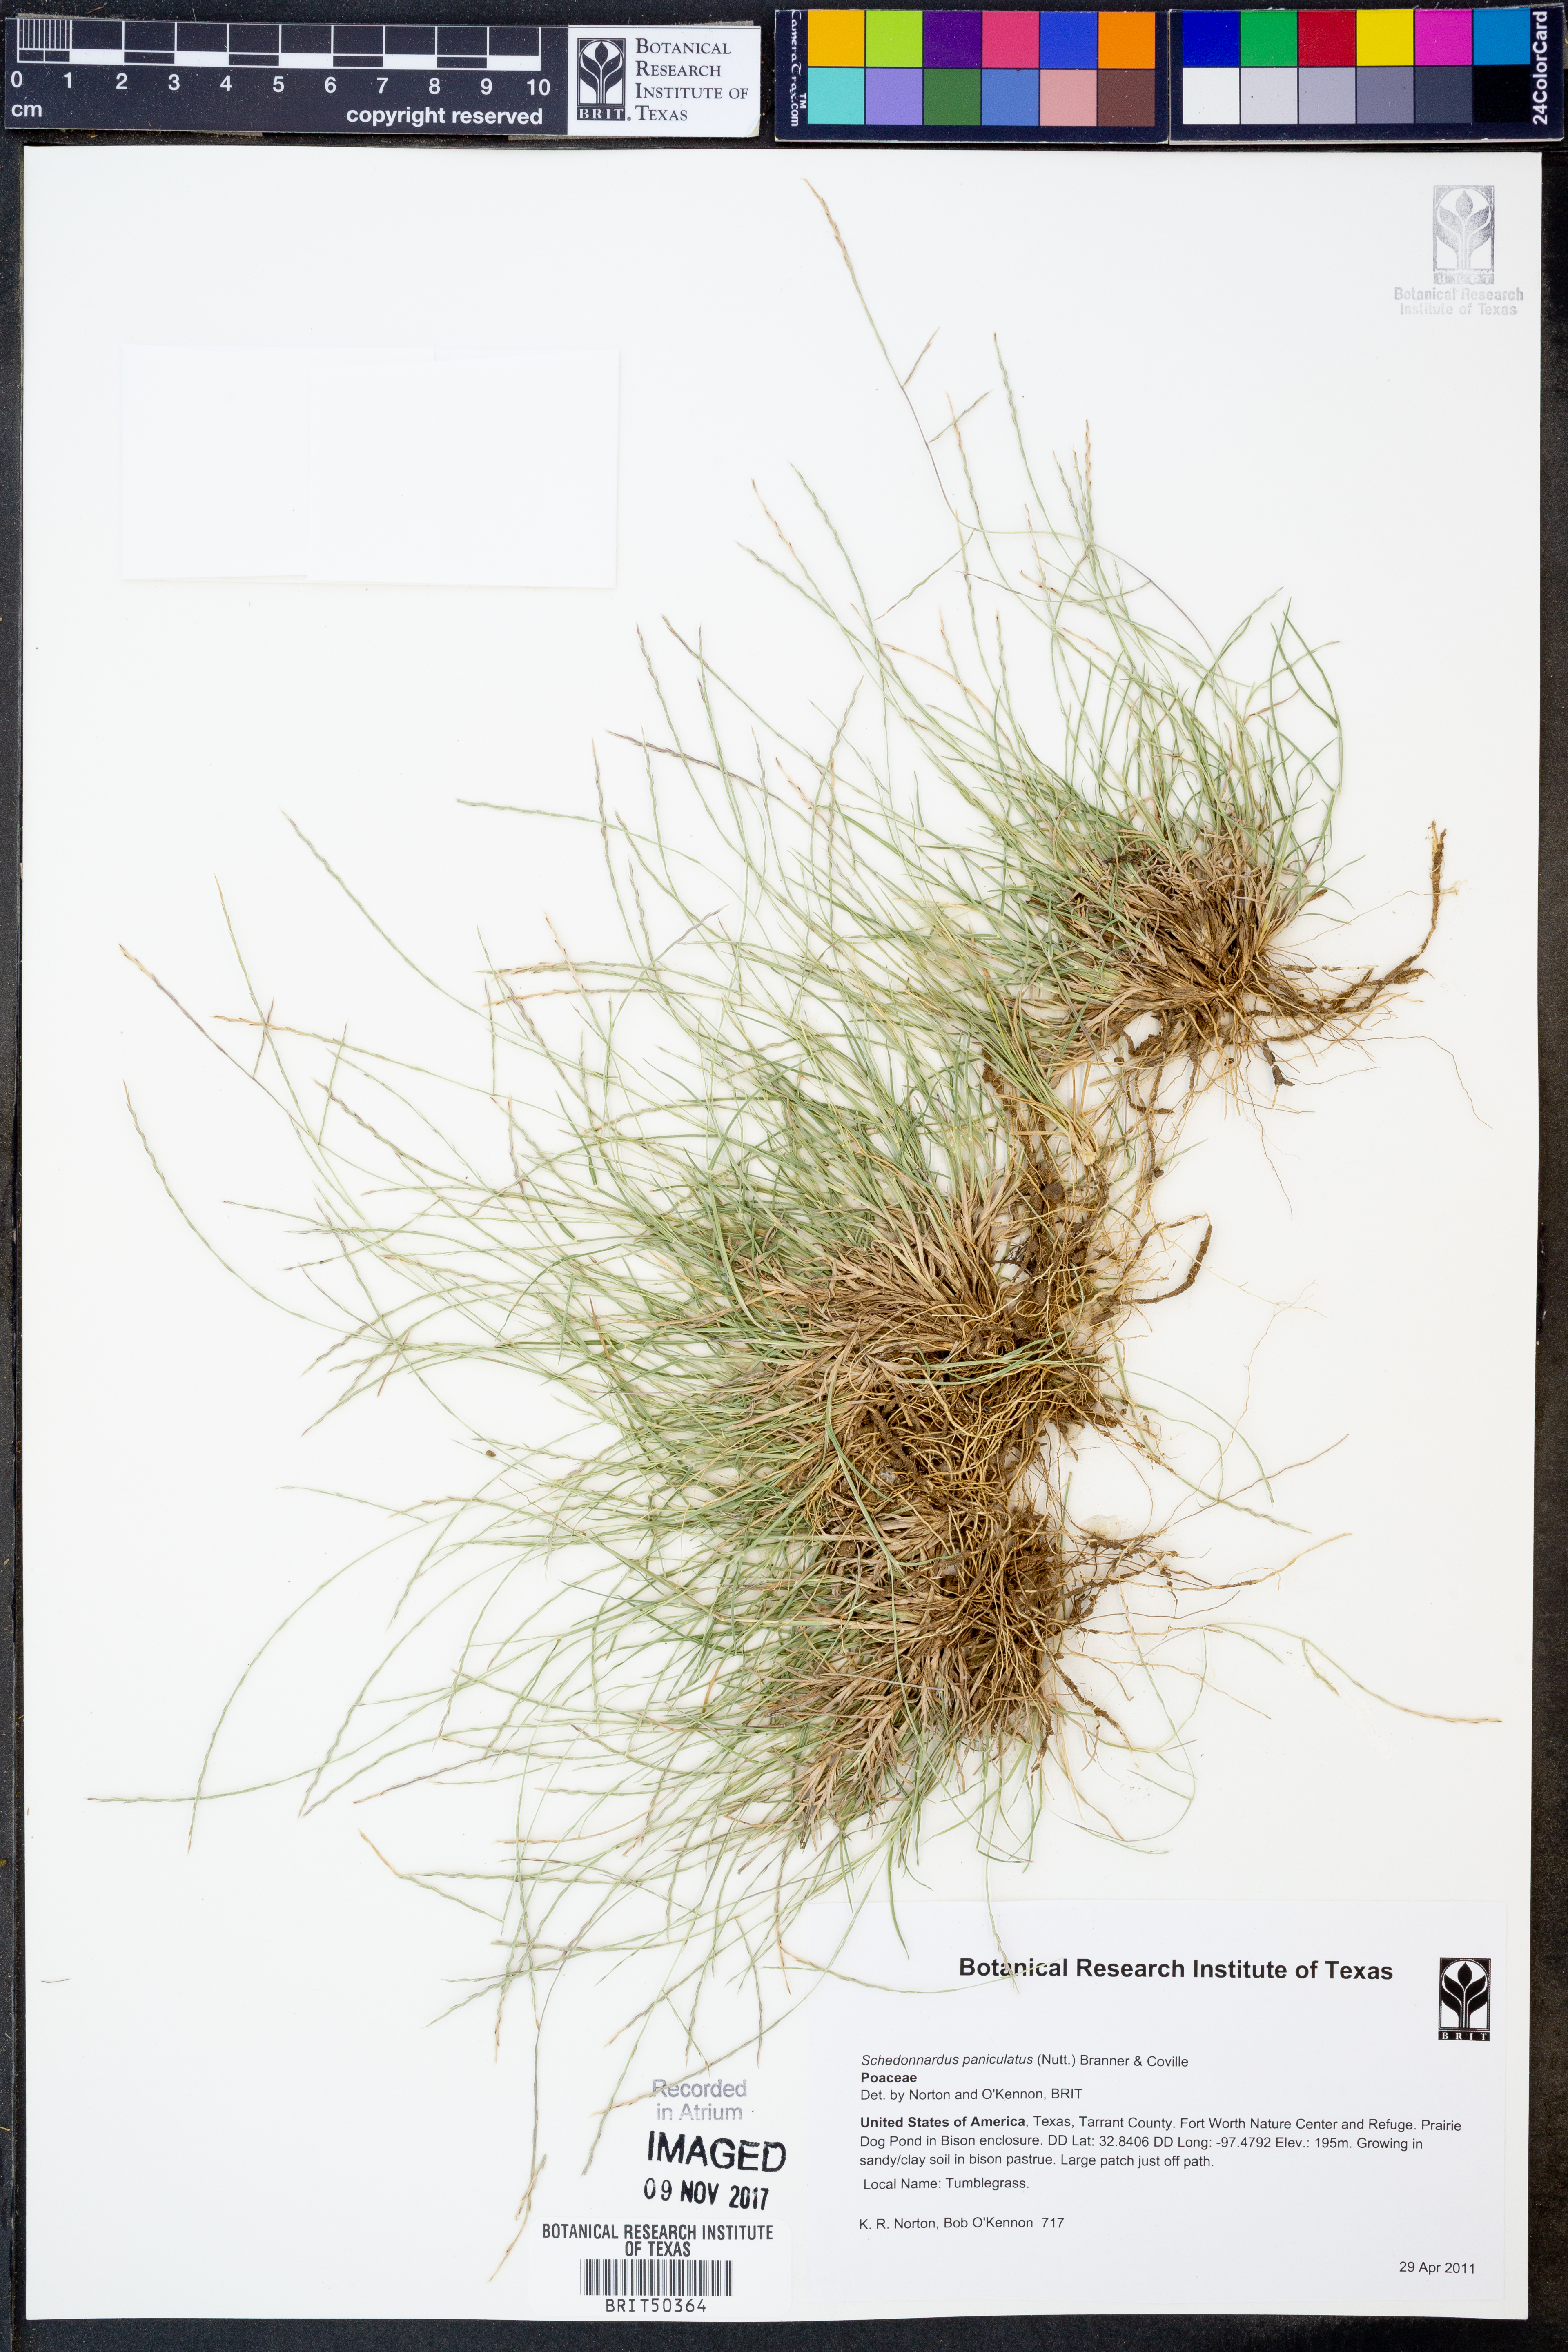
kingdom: Plantae
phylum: Tracheophyta
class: Liliopsida
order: Poales
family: Poaceae
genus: Muhlenbergia
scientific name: Muhlenbergia paniculata
